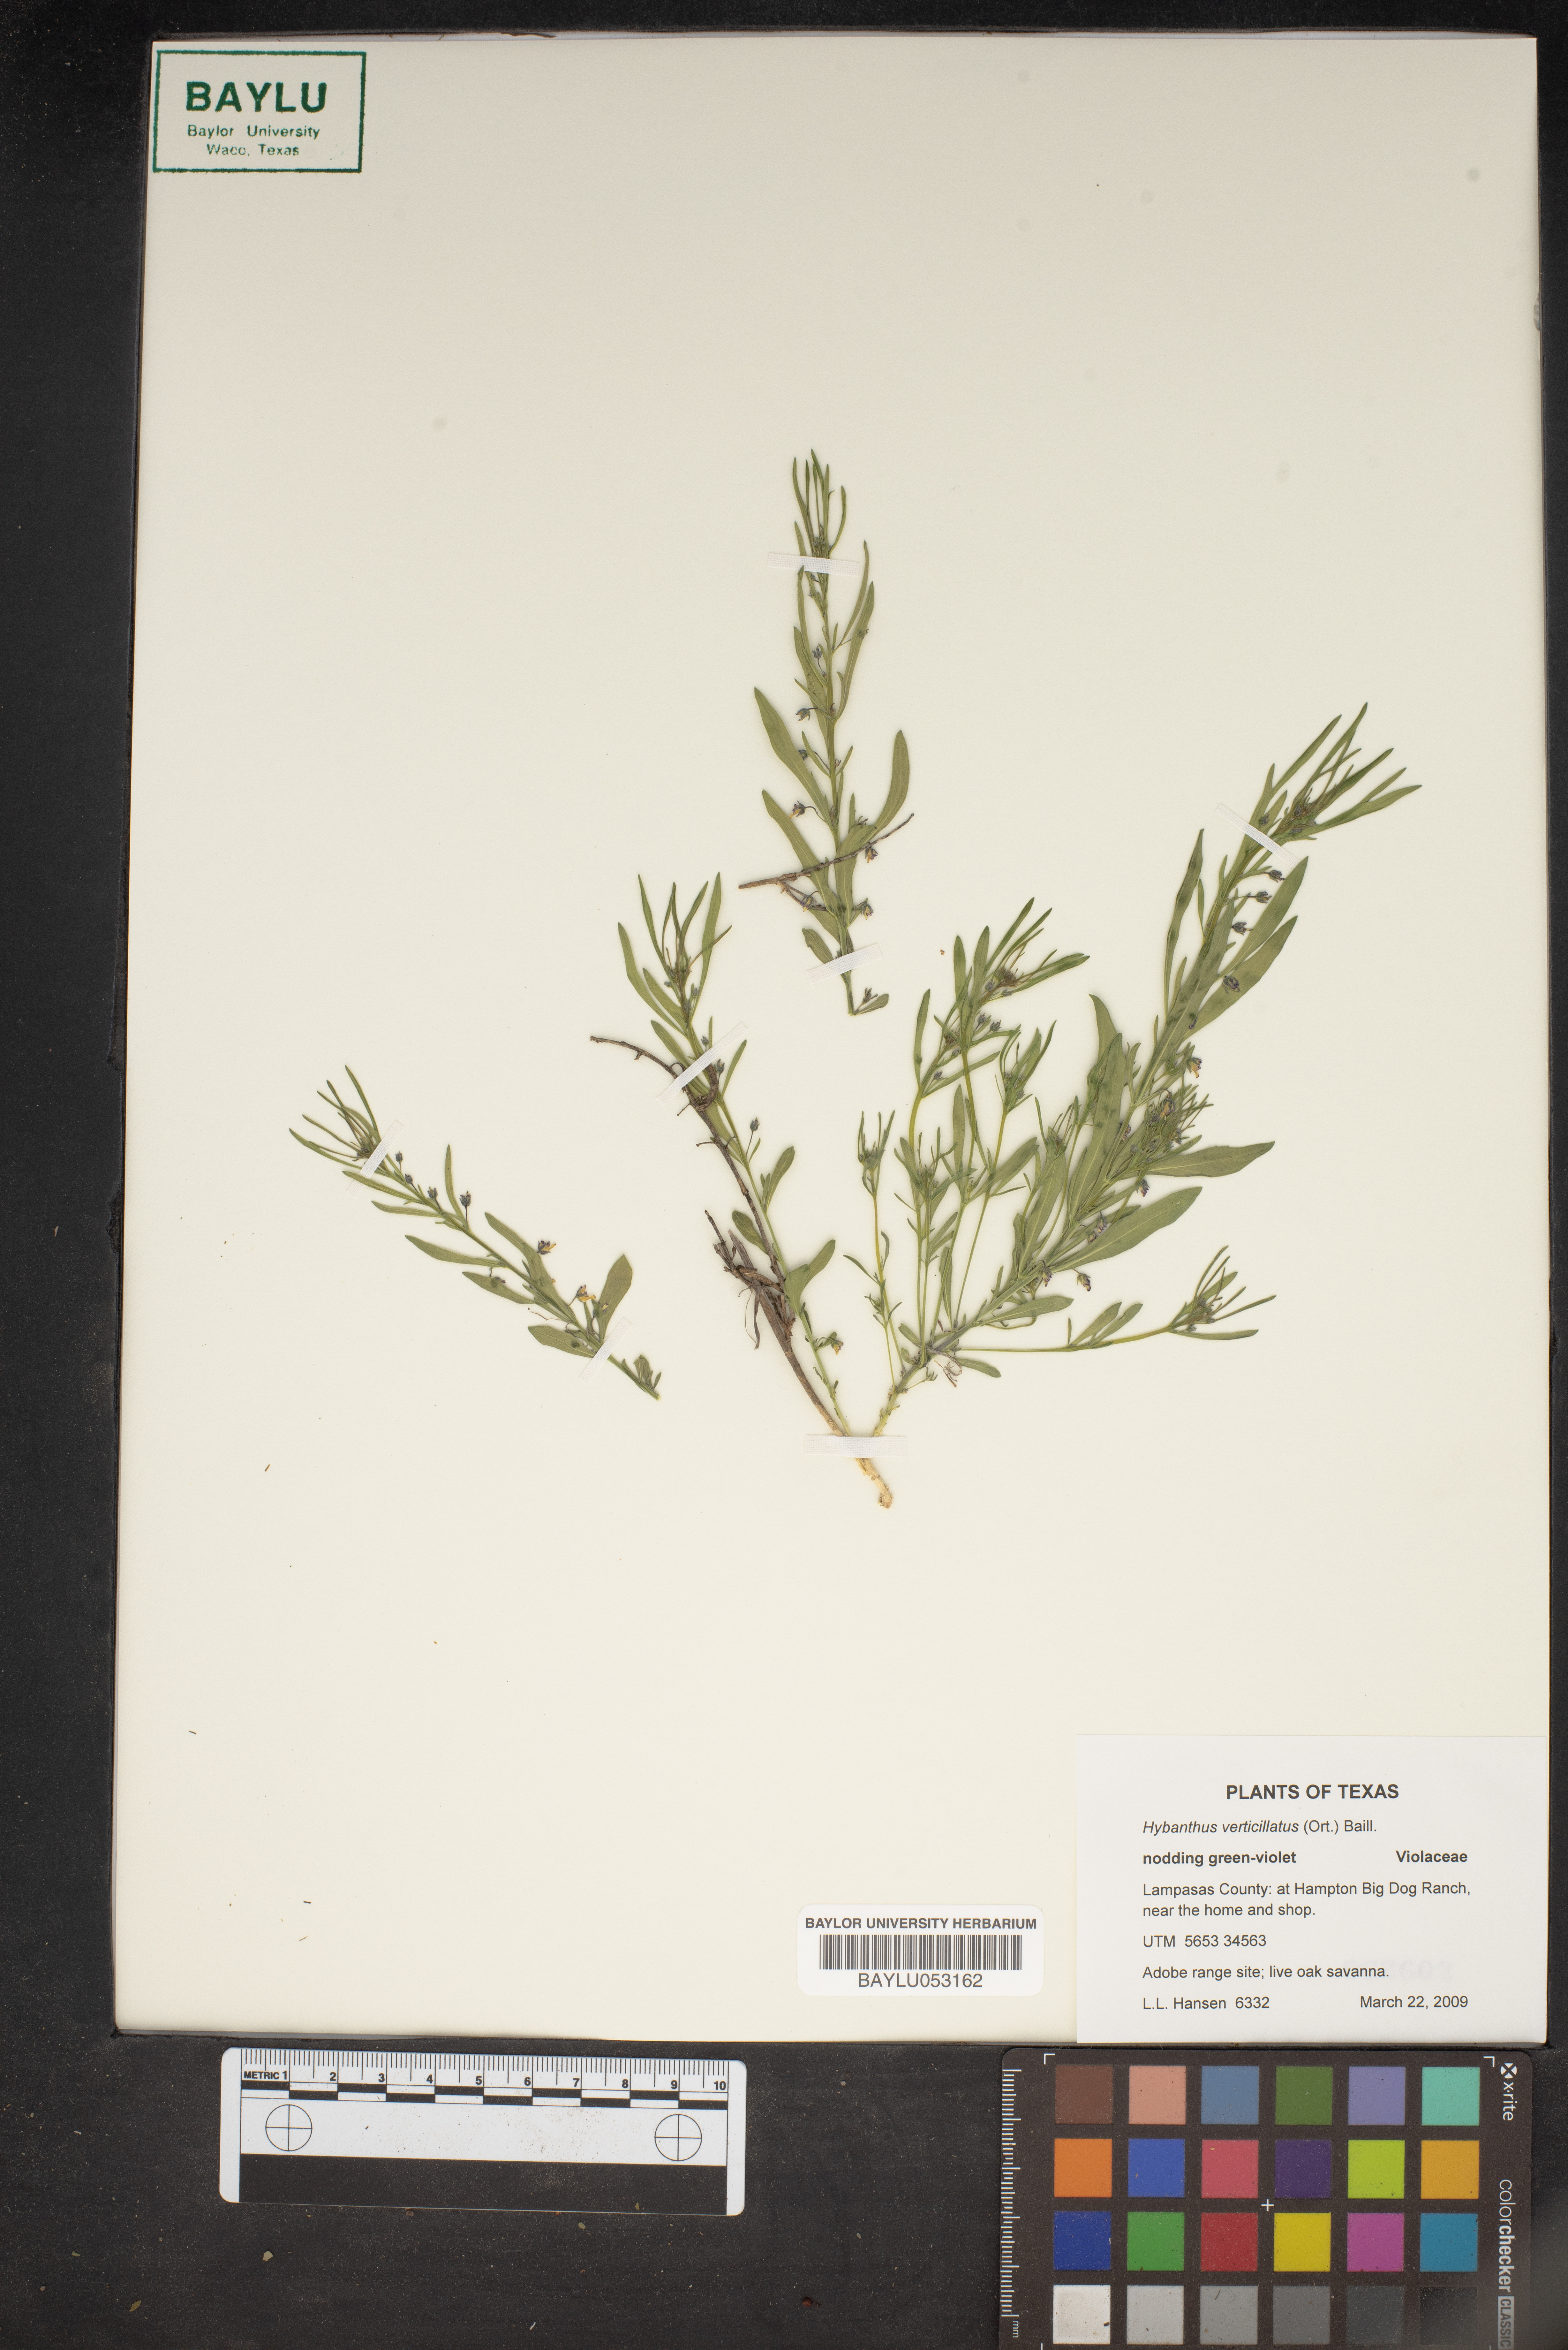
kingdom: Plantae
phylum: Tracheophyta
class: Magnoliopsida
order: Malpighiales
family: Violaceae
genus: Pombalia
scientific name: Pombalia verticillata
